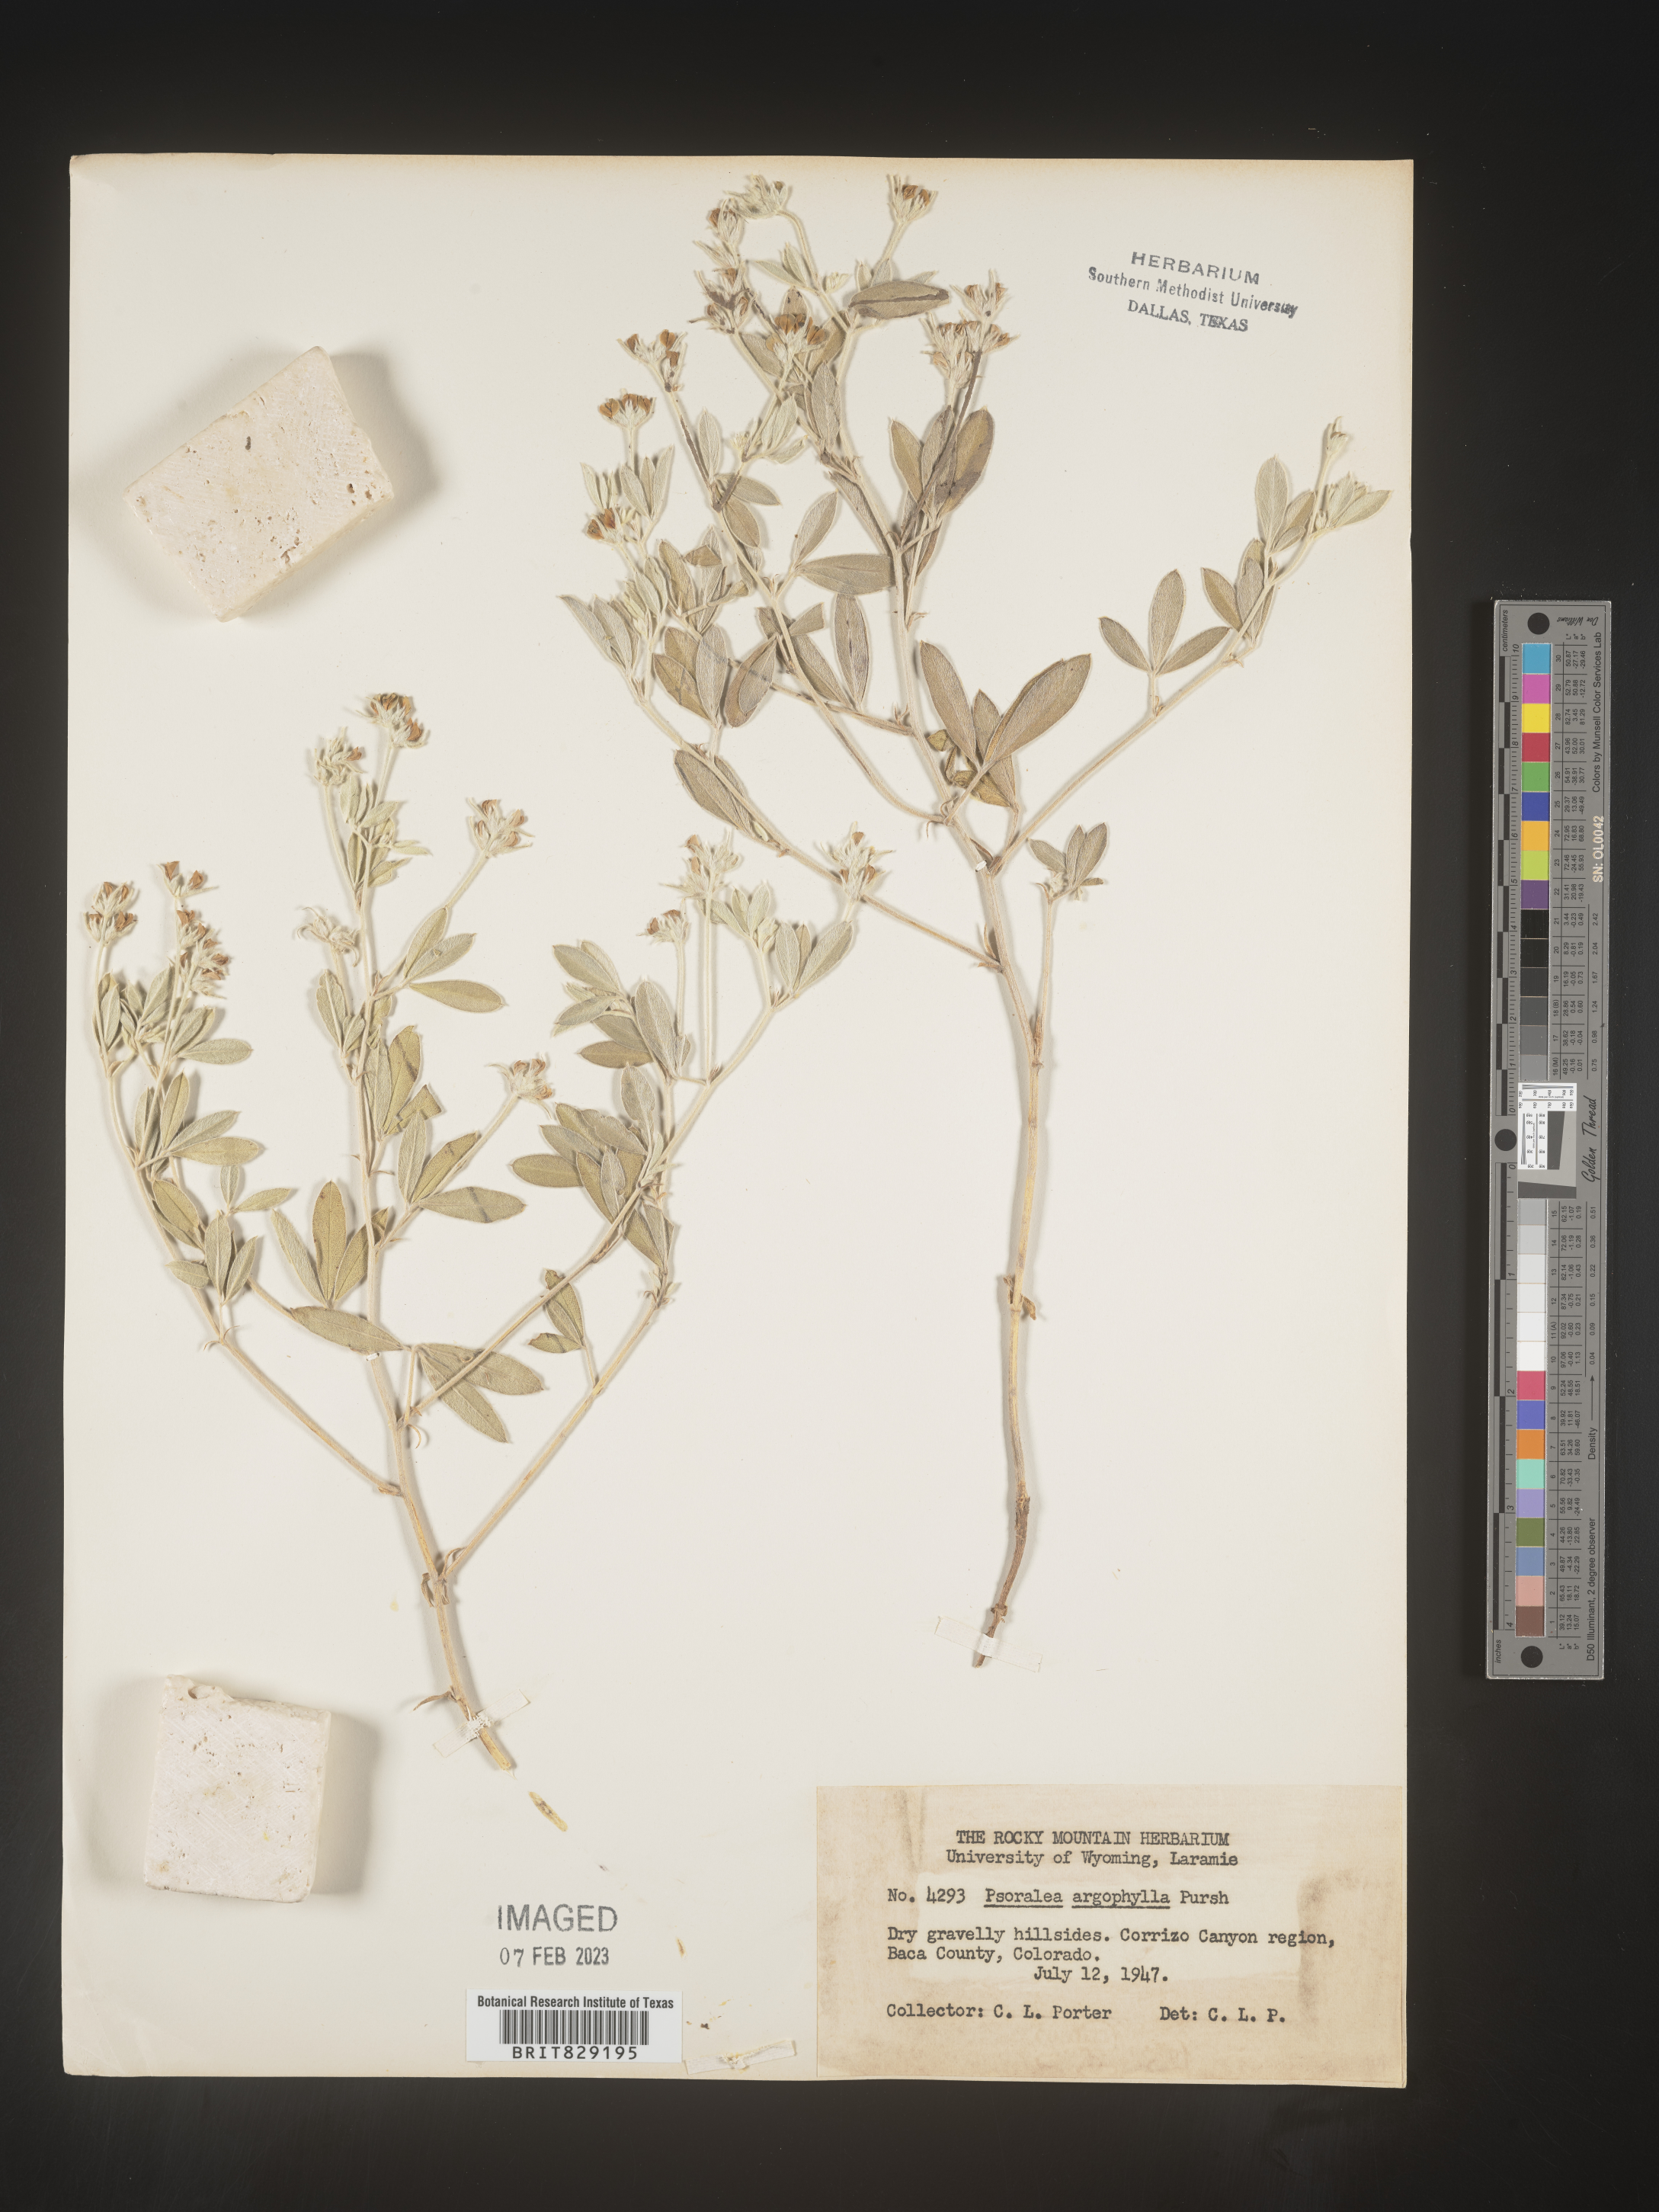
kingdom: Plantae
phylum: Tracheophyta
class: Magnoliopsida
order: Fabales
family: Fabaceae
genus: Pediomelum
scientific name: Pediomelum argophyllum
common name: Silver-leaved indian breadroot
